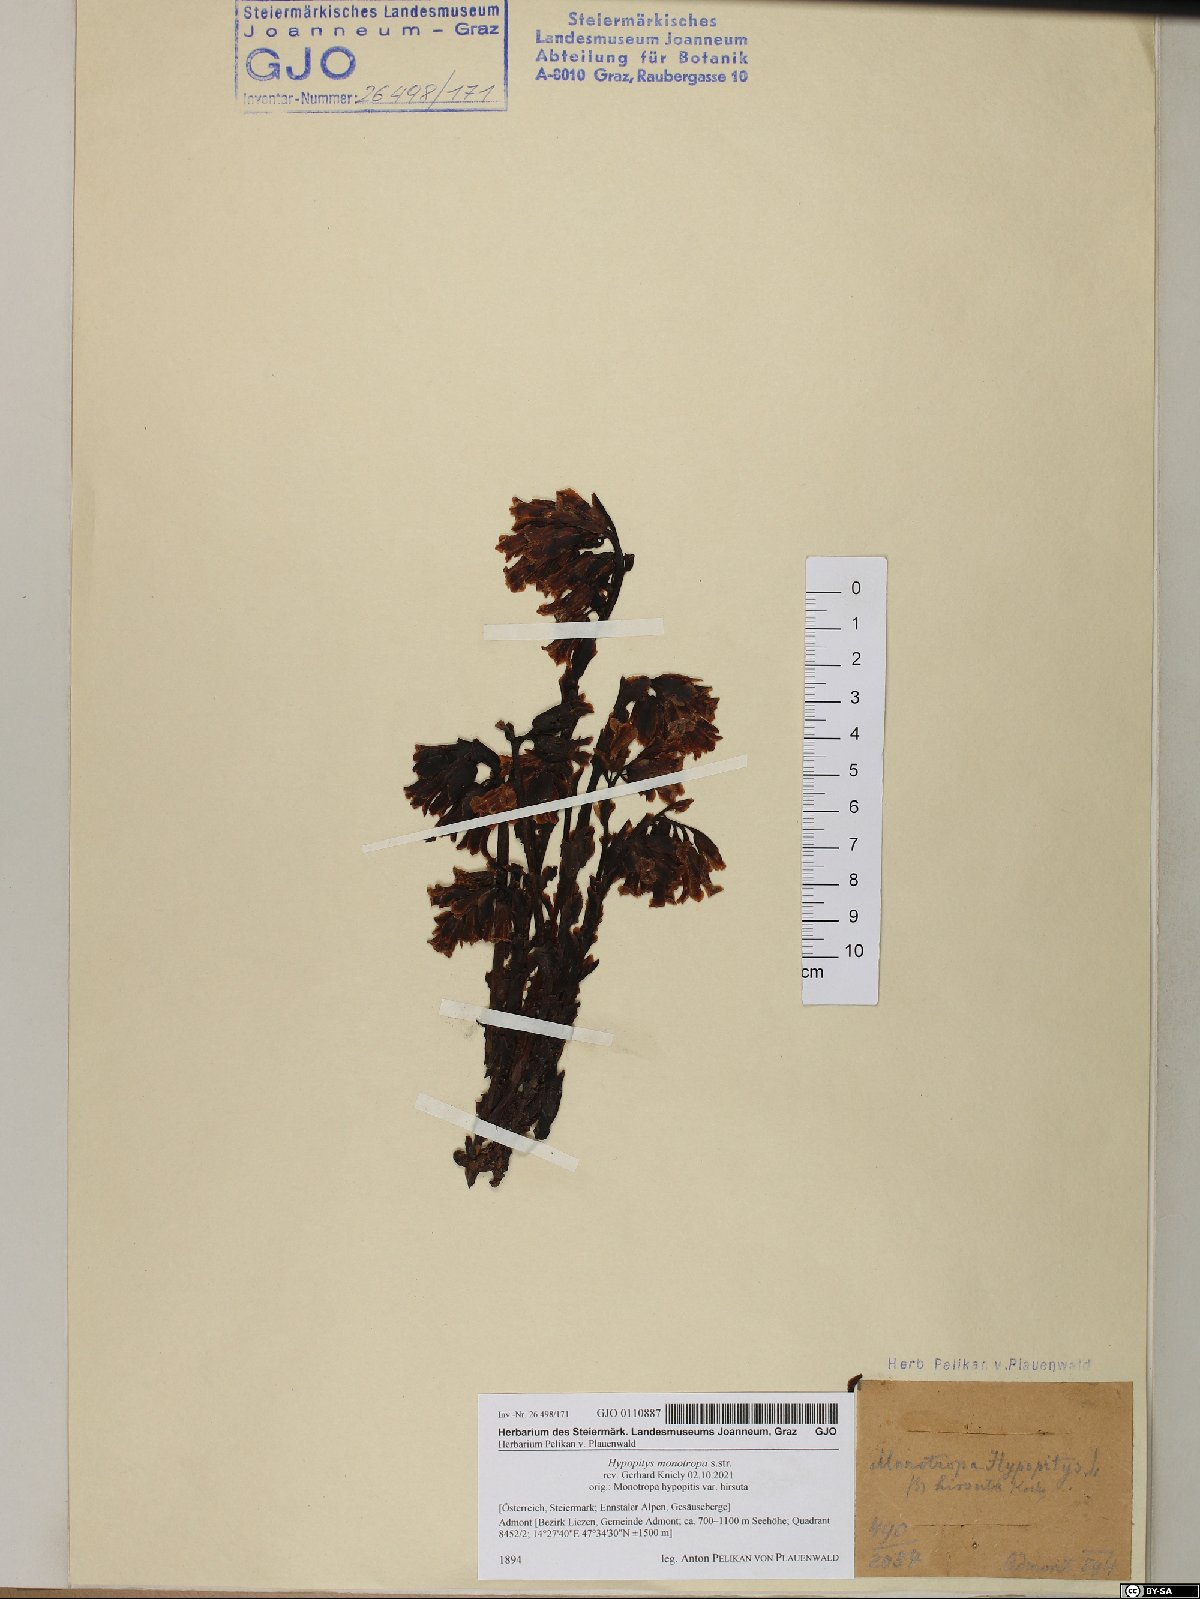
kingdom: Plantae
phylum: Tracheophyta
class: Magnoliopsida
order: Ericales
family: Ericaceae
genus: Hypopitys
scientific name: Hypopitys monotropa
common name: Yellow bird's-nest
